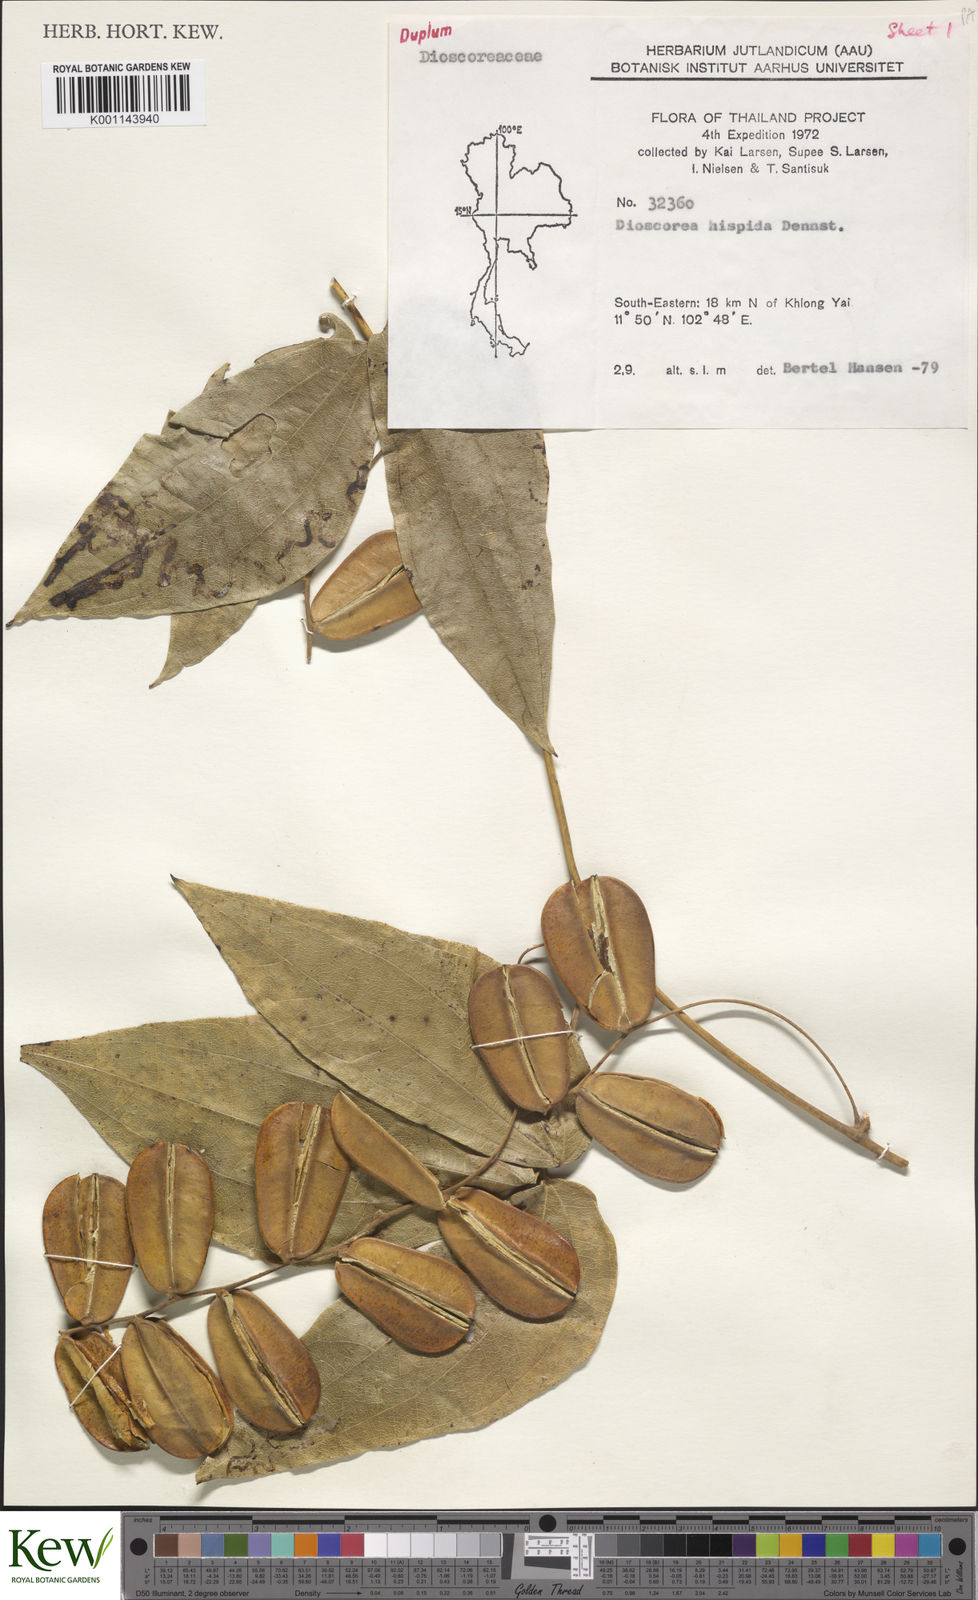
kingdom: Plantae
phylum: Tracheophyta
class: Liliopsida
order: Dioscoreales
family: Dioscoreaceae
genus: Dioscorea
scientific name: Dioscorea hispida
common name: Asiatic bitter yam
